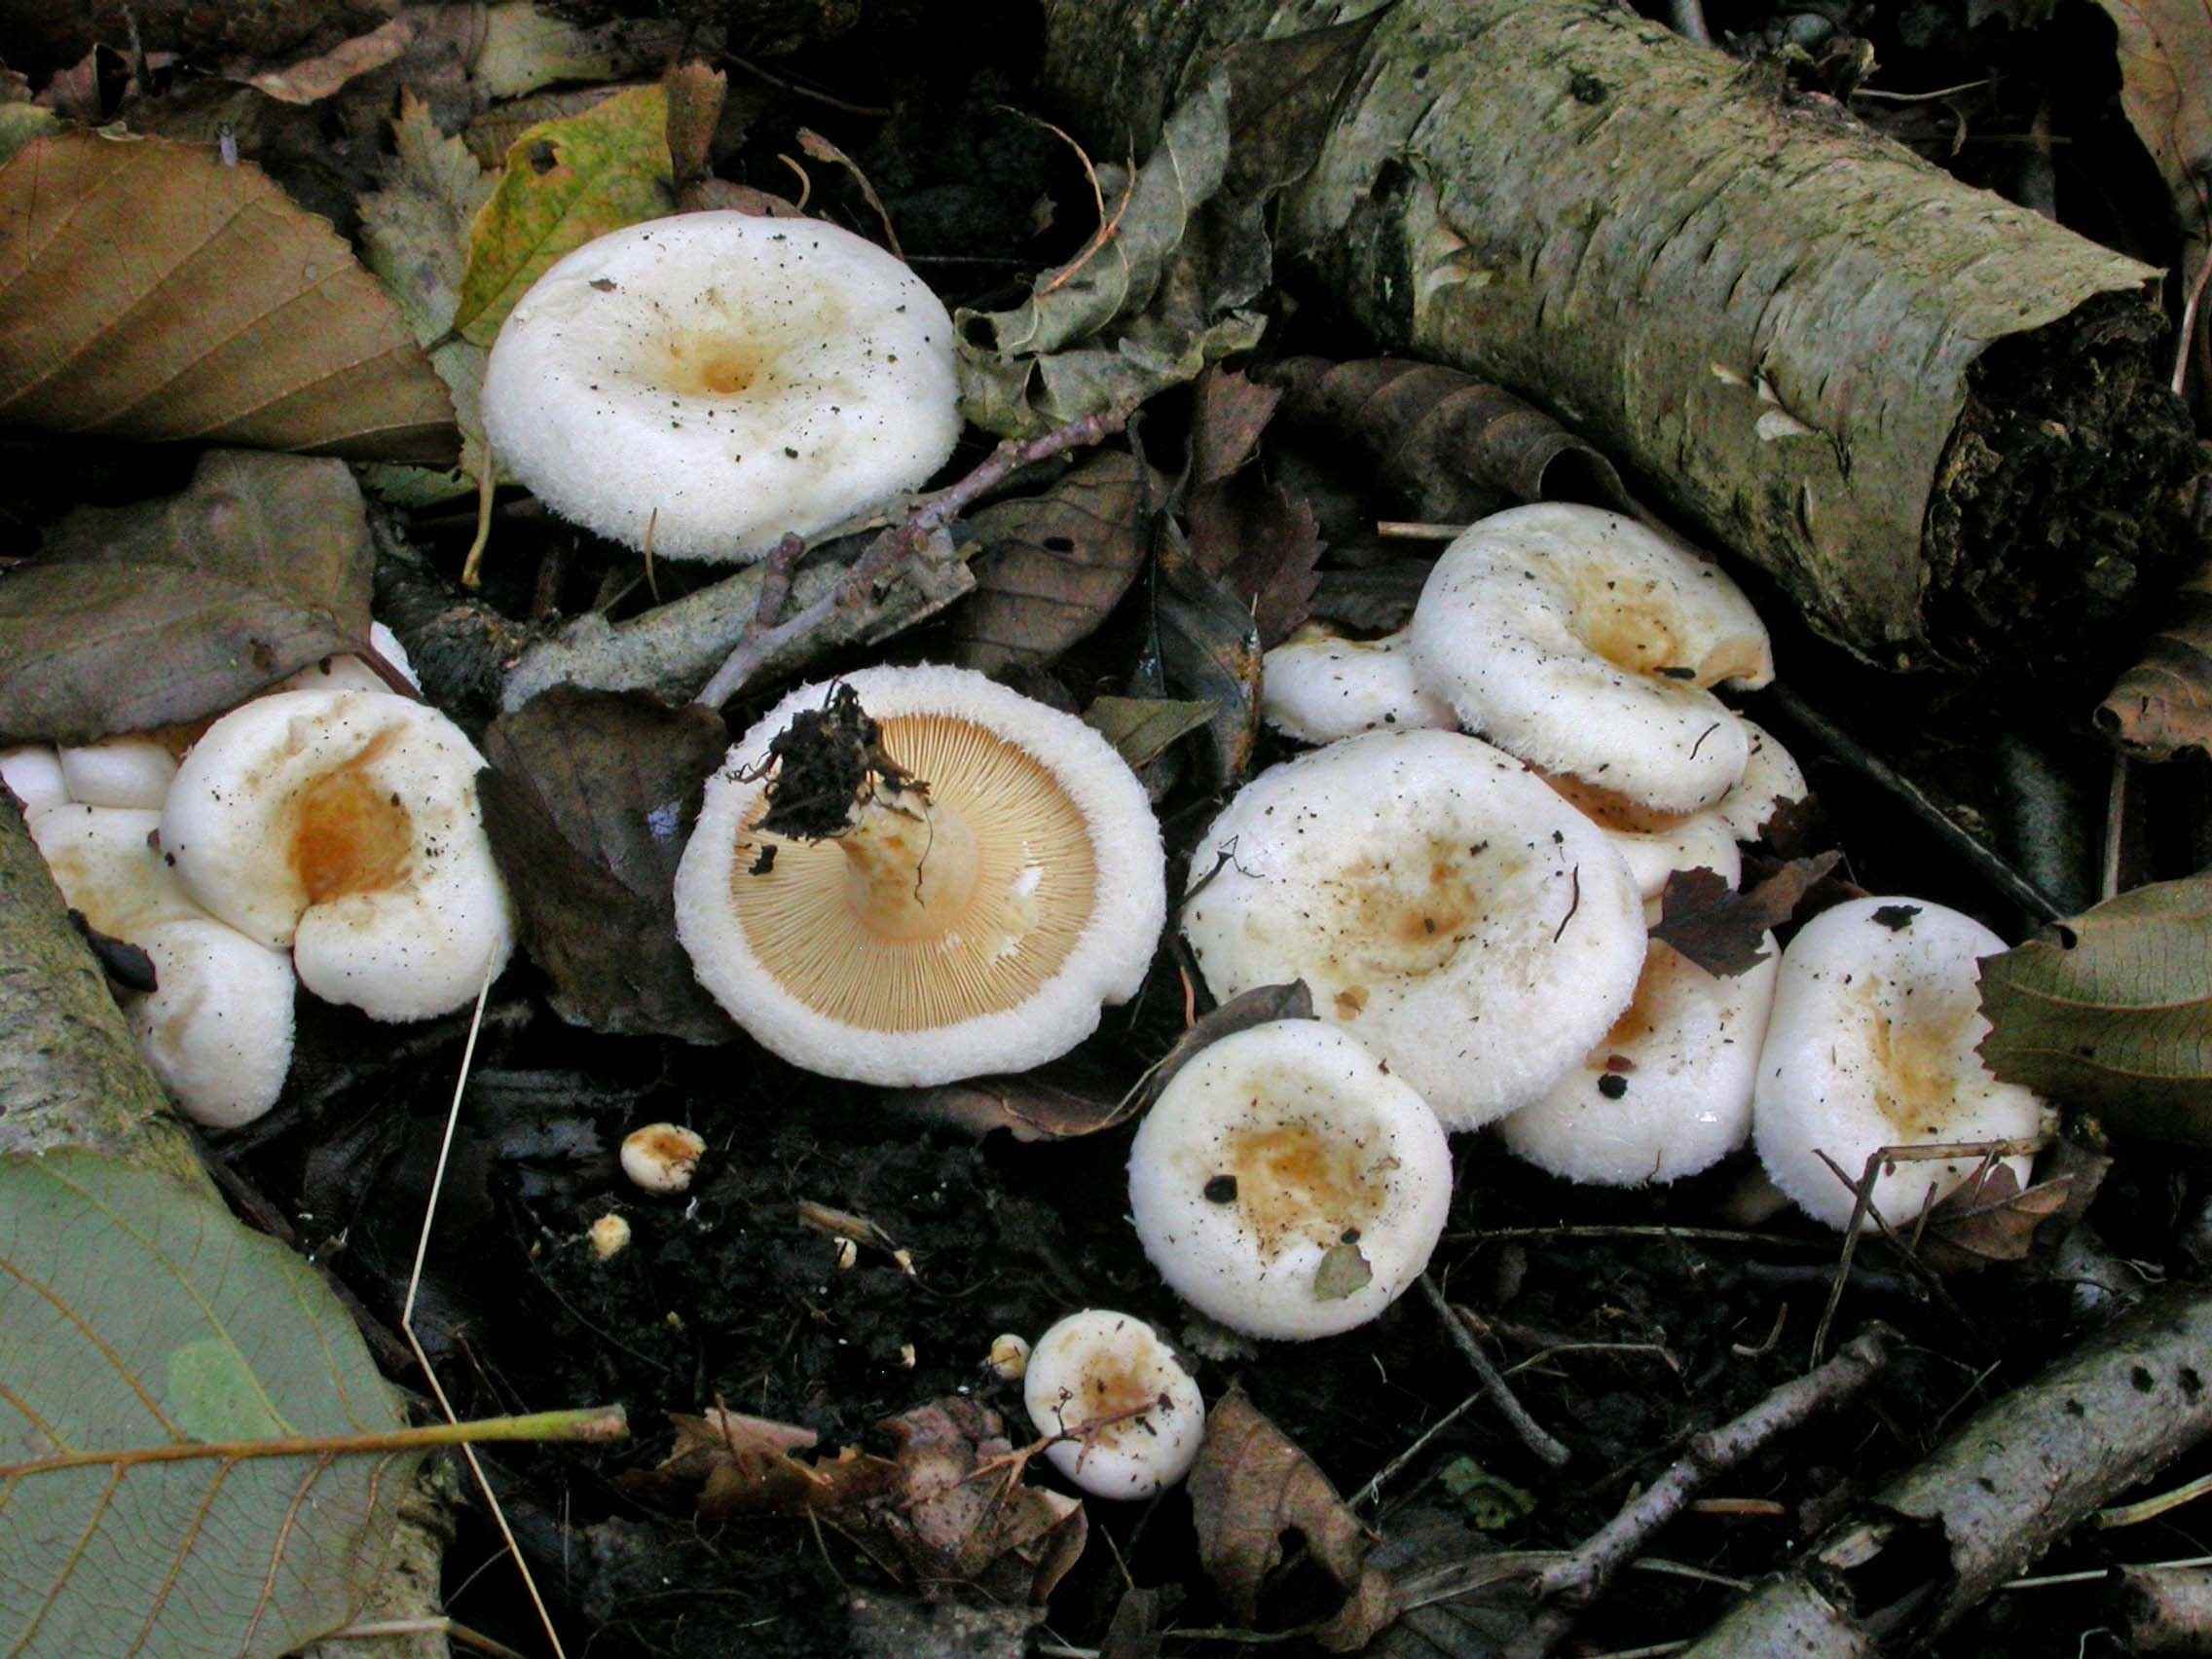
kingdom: Fungi
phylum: Basidiomycota
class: Agaricomycetes
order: Russulales
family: Russulaceae
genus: Lactarius
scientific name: Lactarius scoticus
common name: tørve-mælkehat
